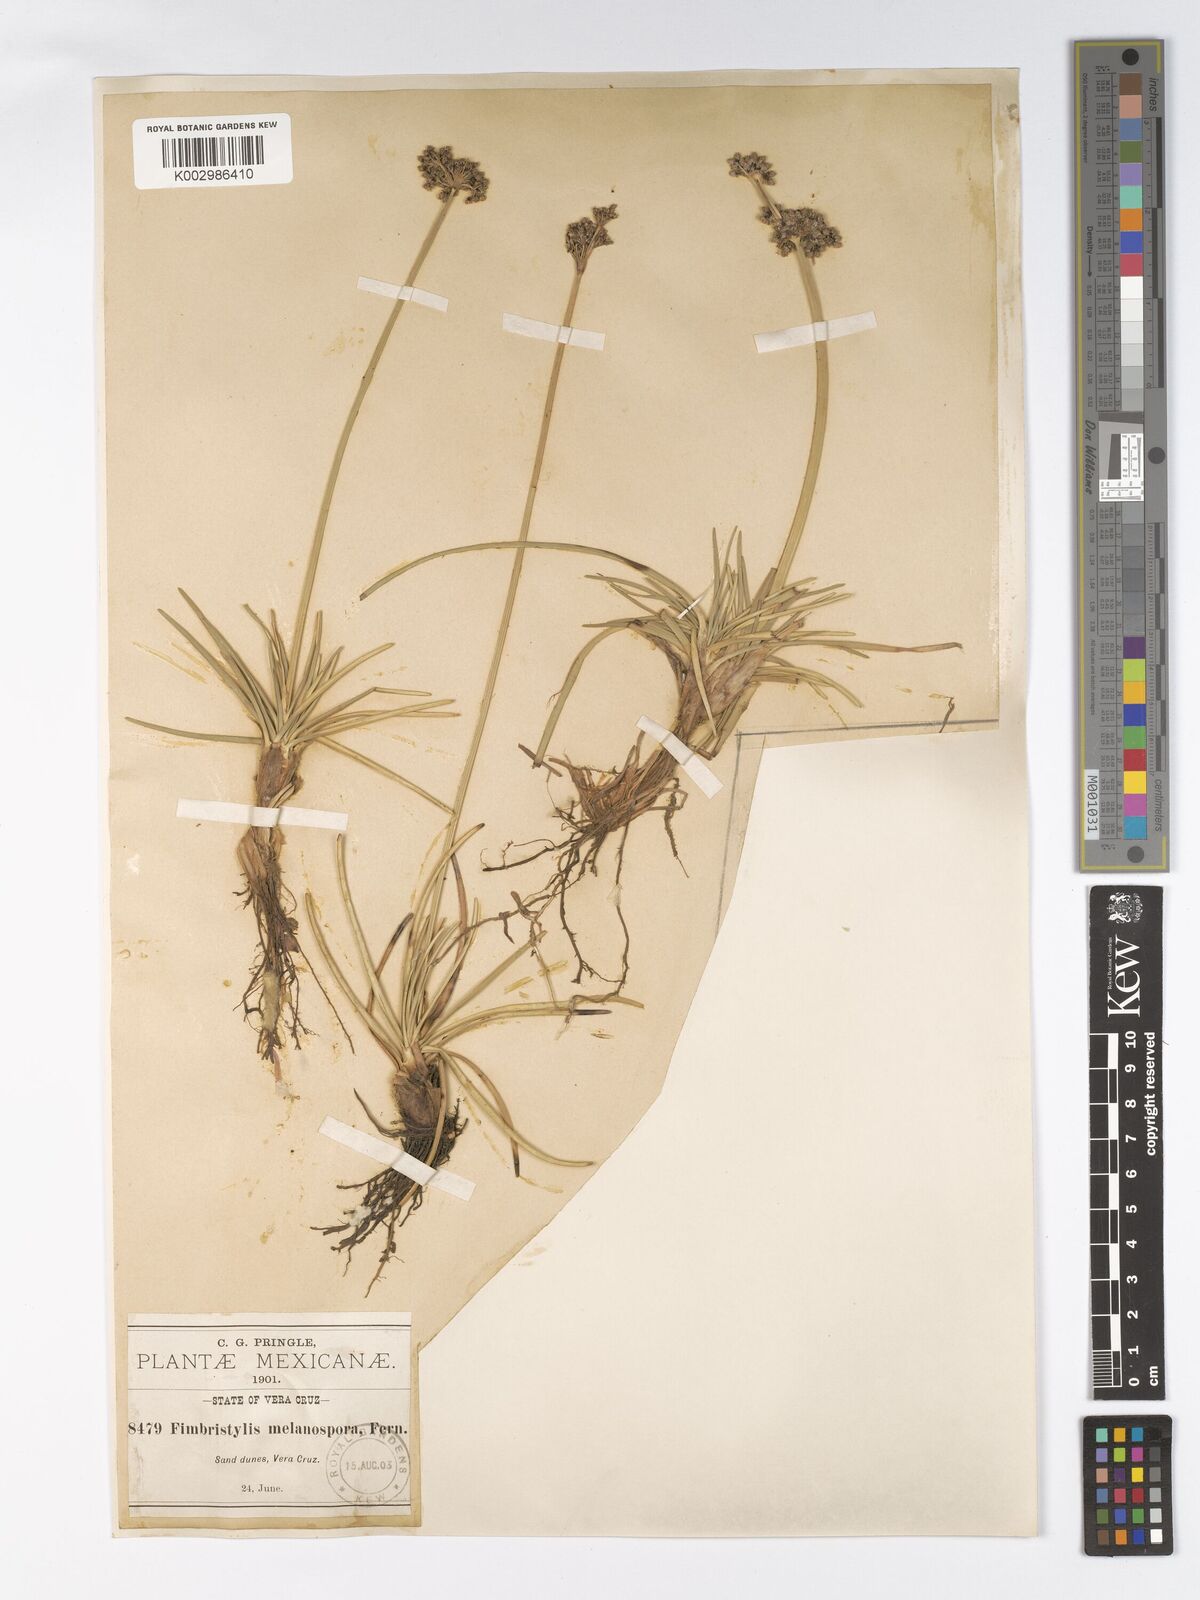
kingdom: Plantae
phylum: Tracheophyta
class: Liliopsida
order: Poales
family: Cyperaceae
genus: Fimbristylis
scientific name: Fimbristylis cymosa
